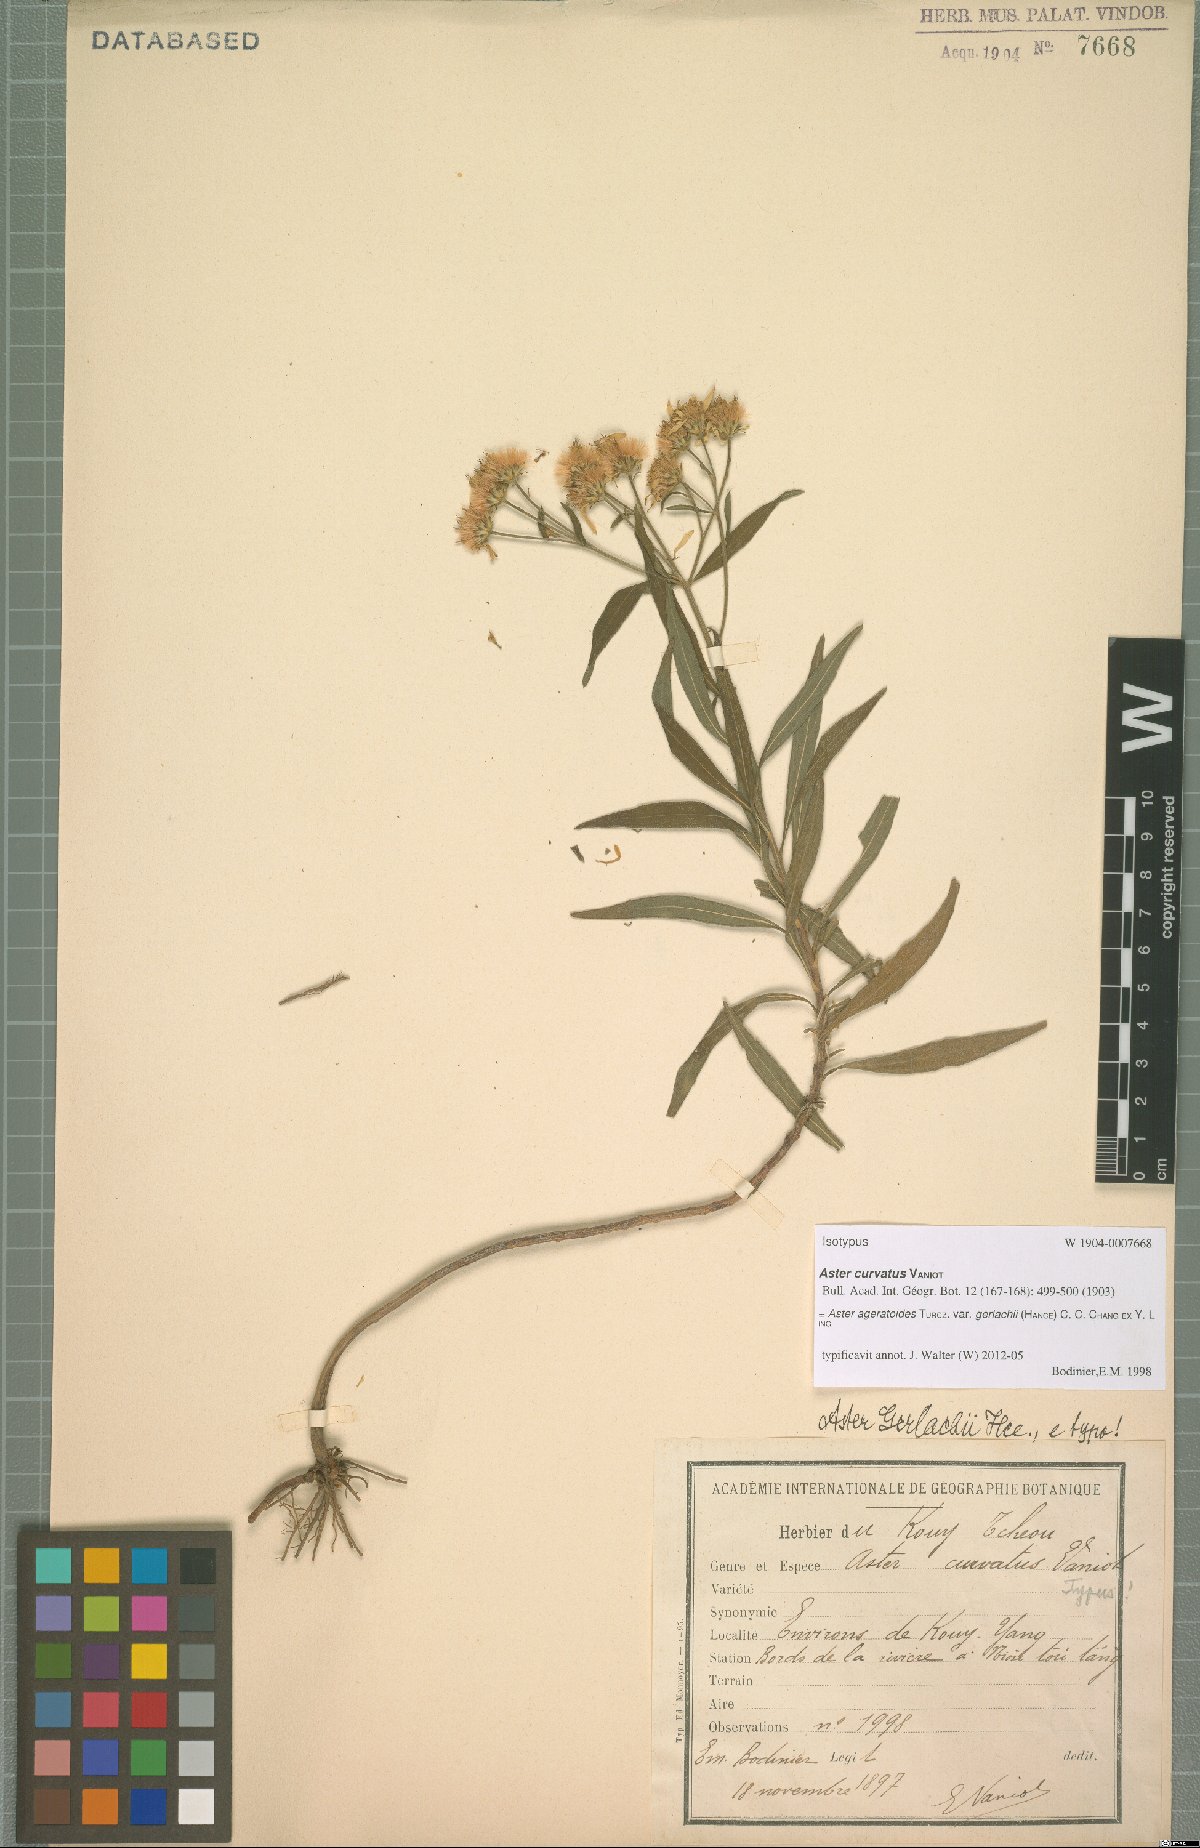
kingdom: Plantae
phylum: Tracheophyta
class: Magnoliopsida
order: Asterales
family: Asteraceae
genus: Aster
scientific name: Aster ageratoides
